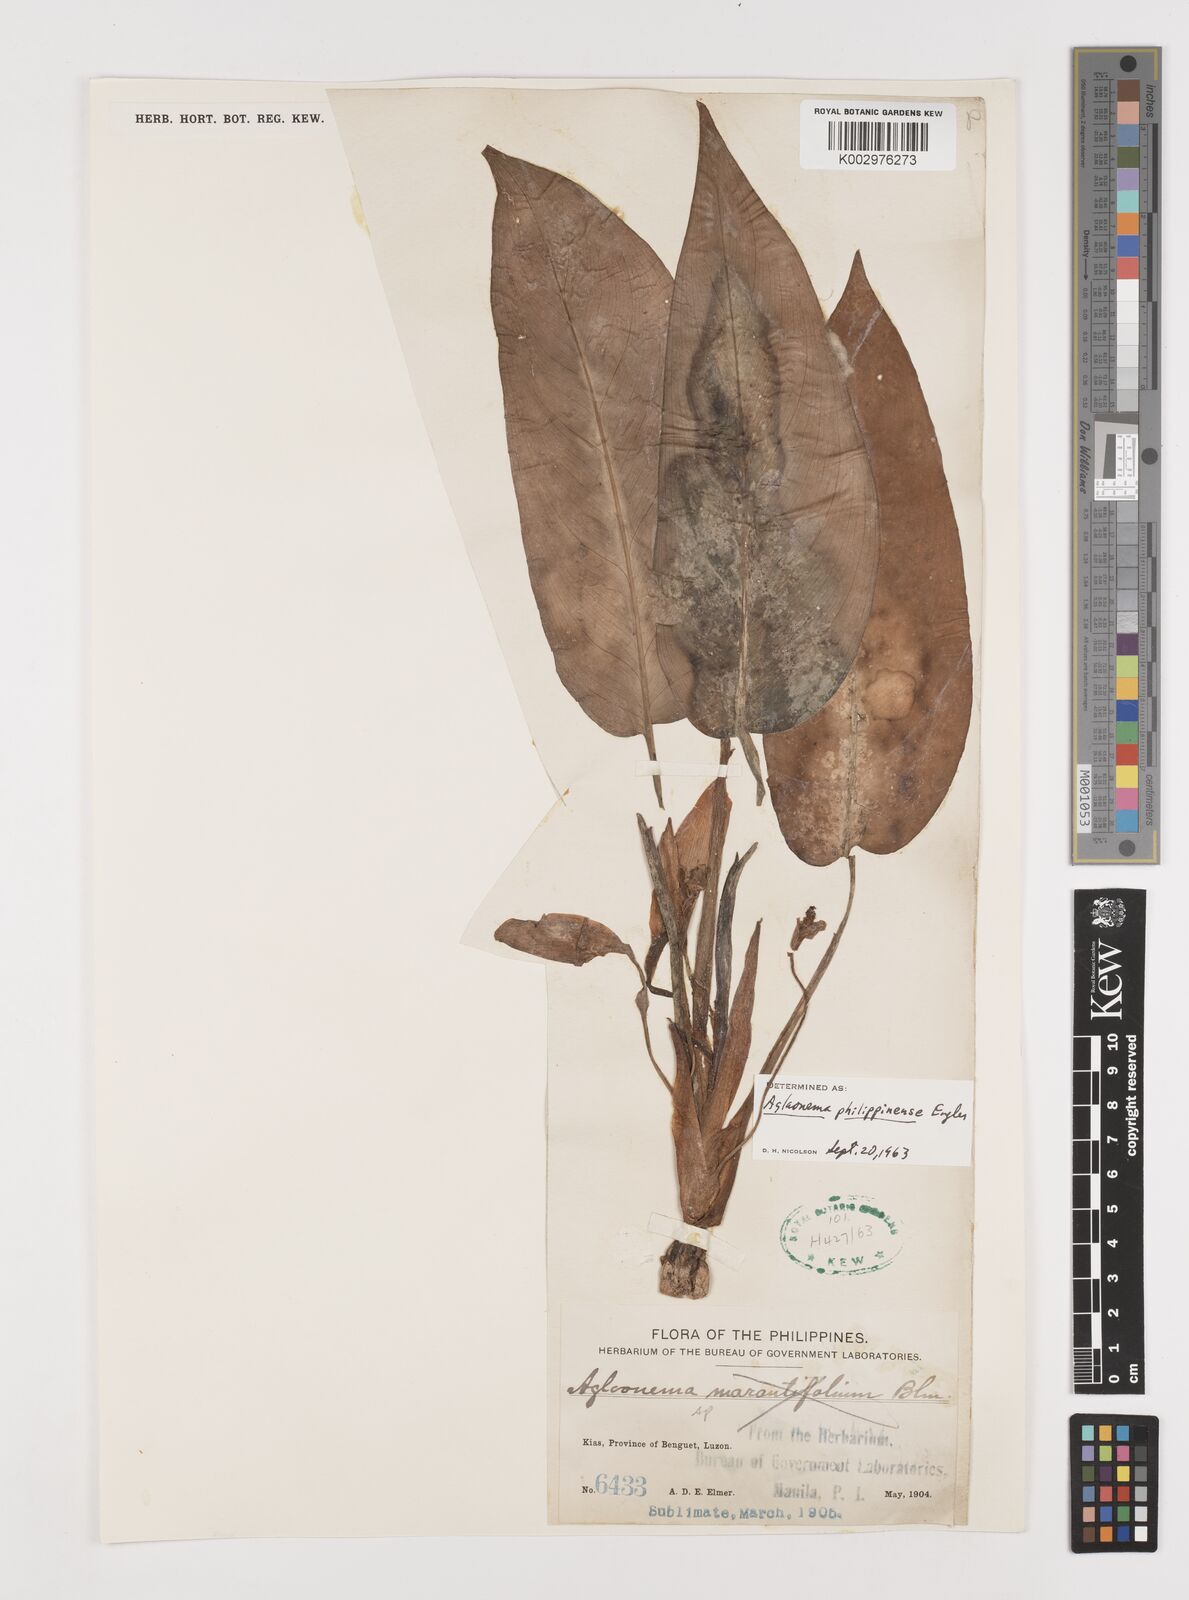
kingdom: Plantae
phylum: Tracheophyta
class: Liliopsida
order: Alismatales
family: Araceae
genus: Aglaonema
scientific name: Aglaonema philippinense
